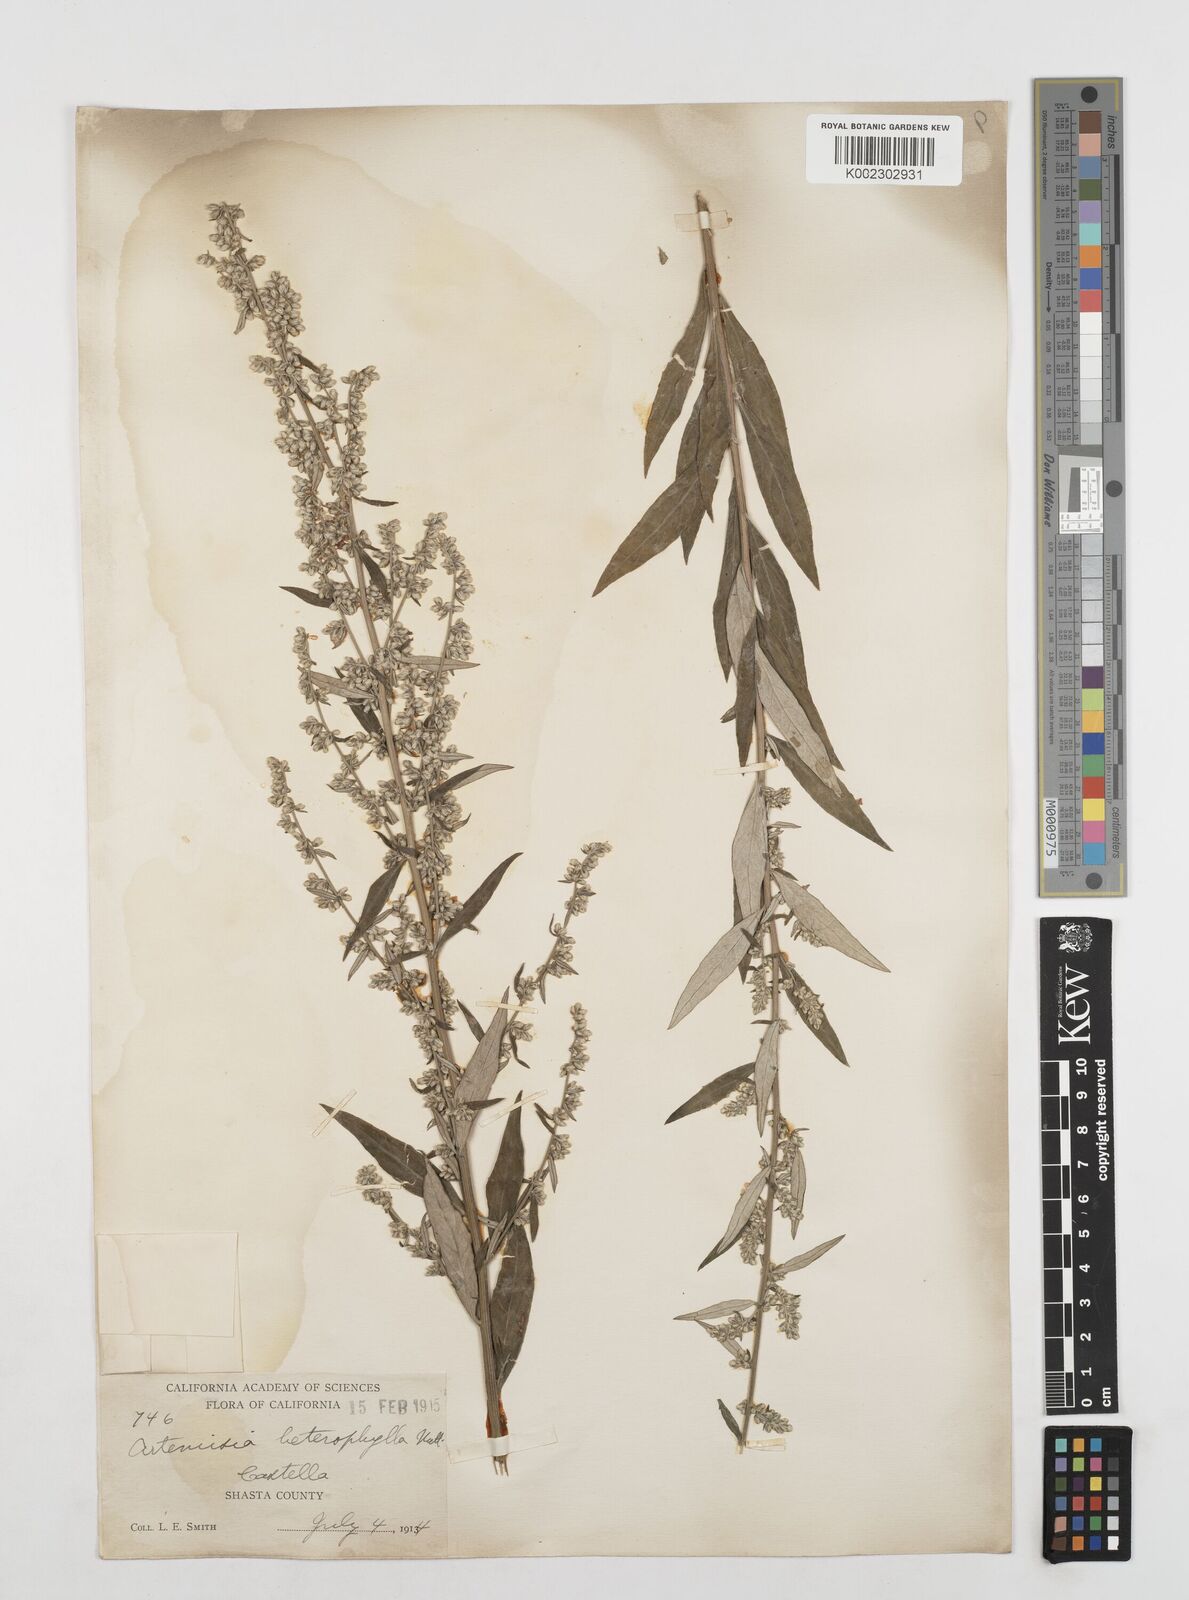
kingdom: Plantae
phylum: Tracheophyta
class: Magnoliopsida
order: Asterales
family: Asteraceae
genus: Artemisia
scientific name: Artemisia douglasiana
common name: Northwest mugwort
